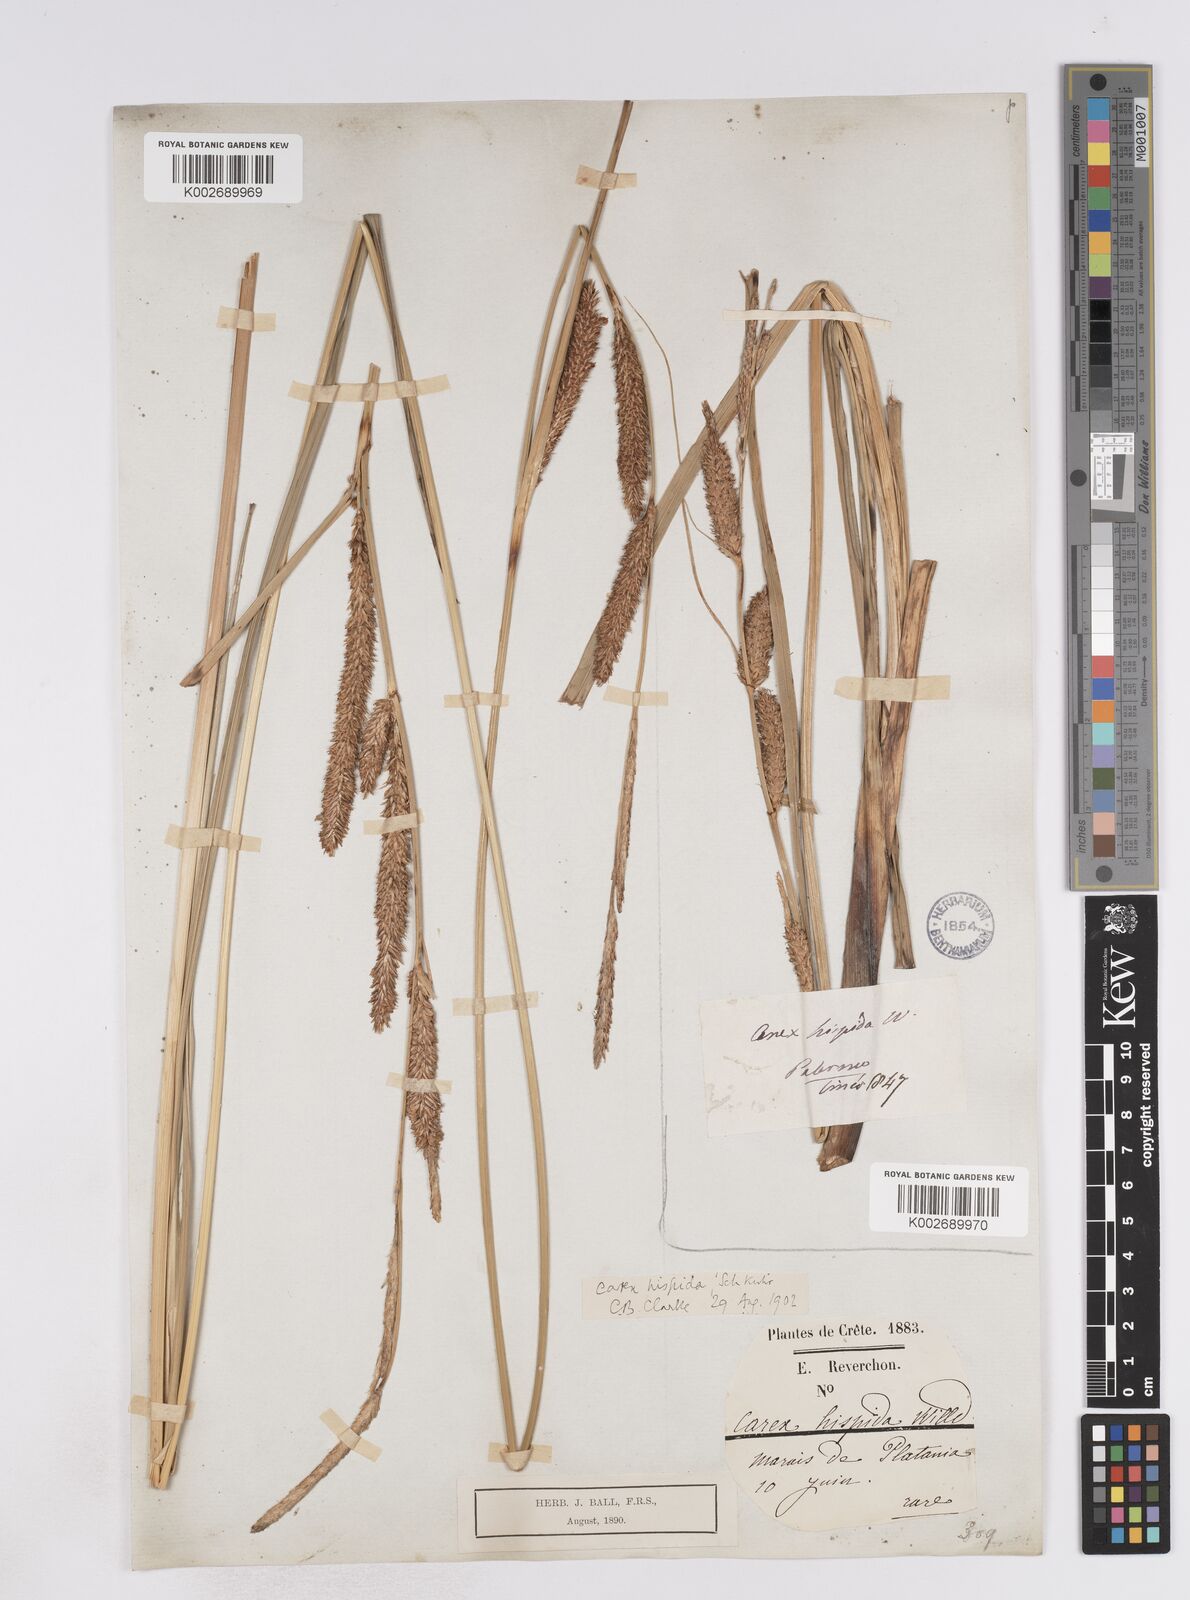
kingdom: Plantae
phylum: Tracheophyta
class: Liliopsida
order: Poales
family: Cyperaceae
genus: Carex
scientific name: Carex hispida
